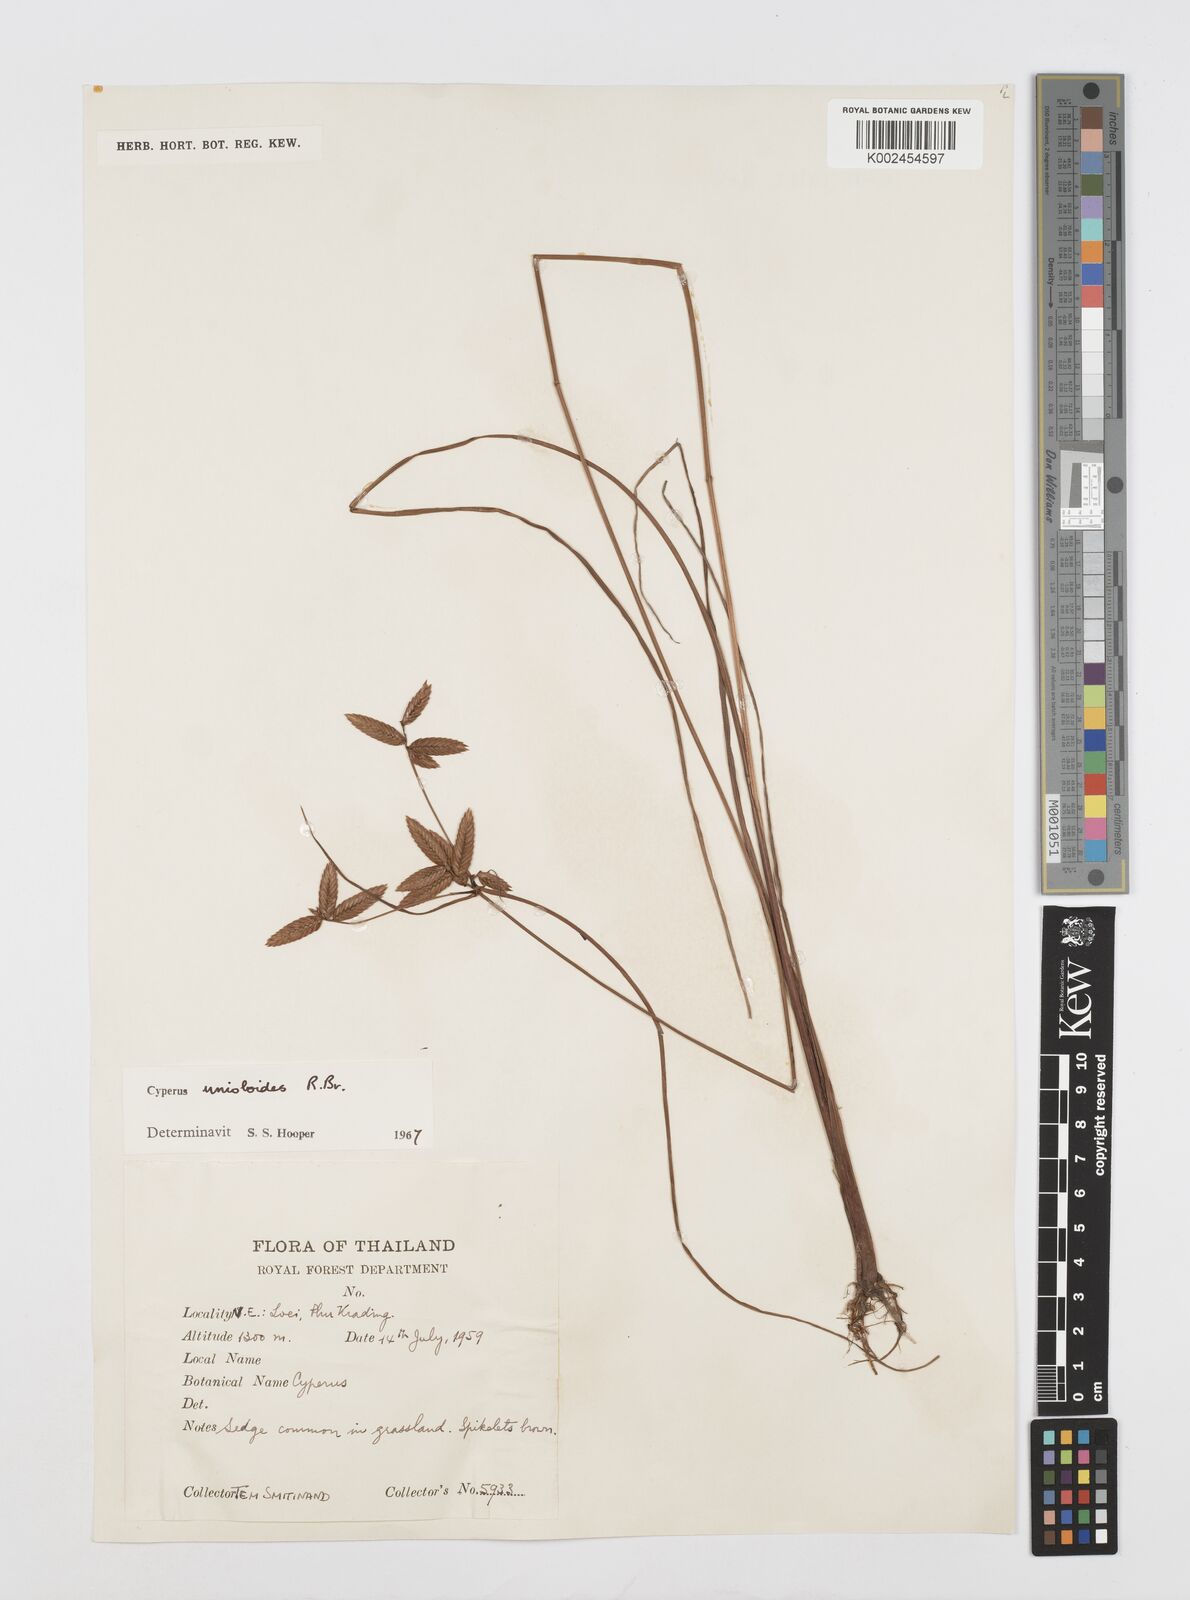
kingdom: Plantae
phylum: Tracheophyta
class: Liliopsida
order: Poales
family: Cyperaceae
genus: Cyperus
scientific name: Cyperus unioloides
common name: Uniola flatsedge
